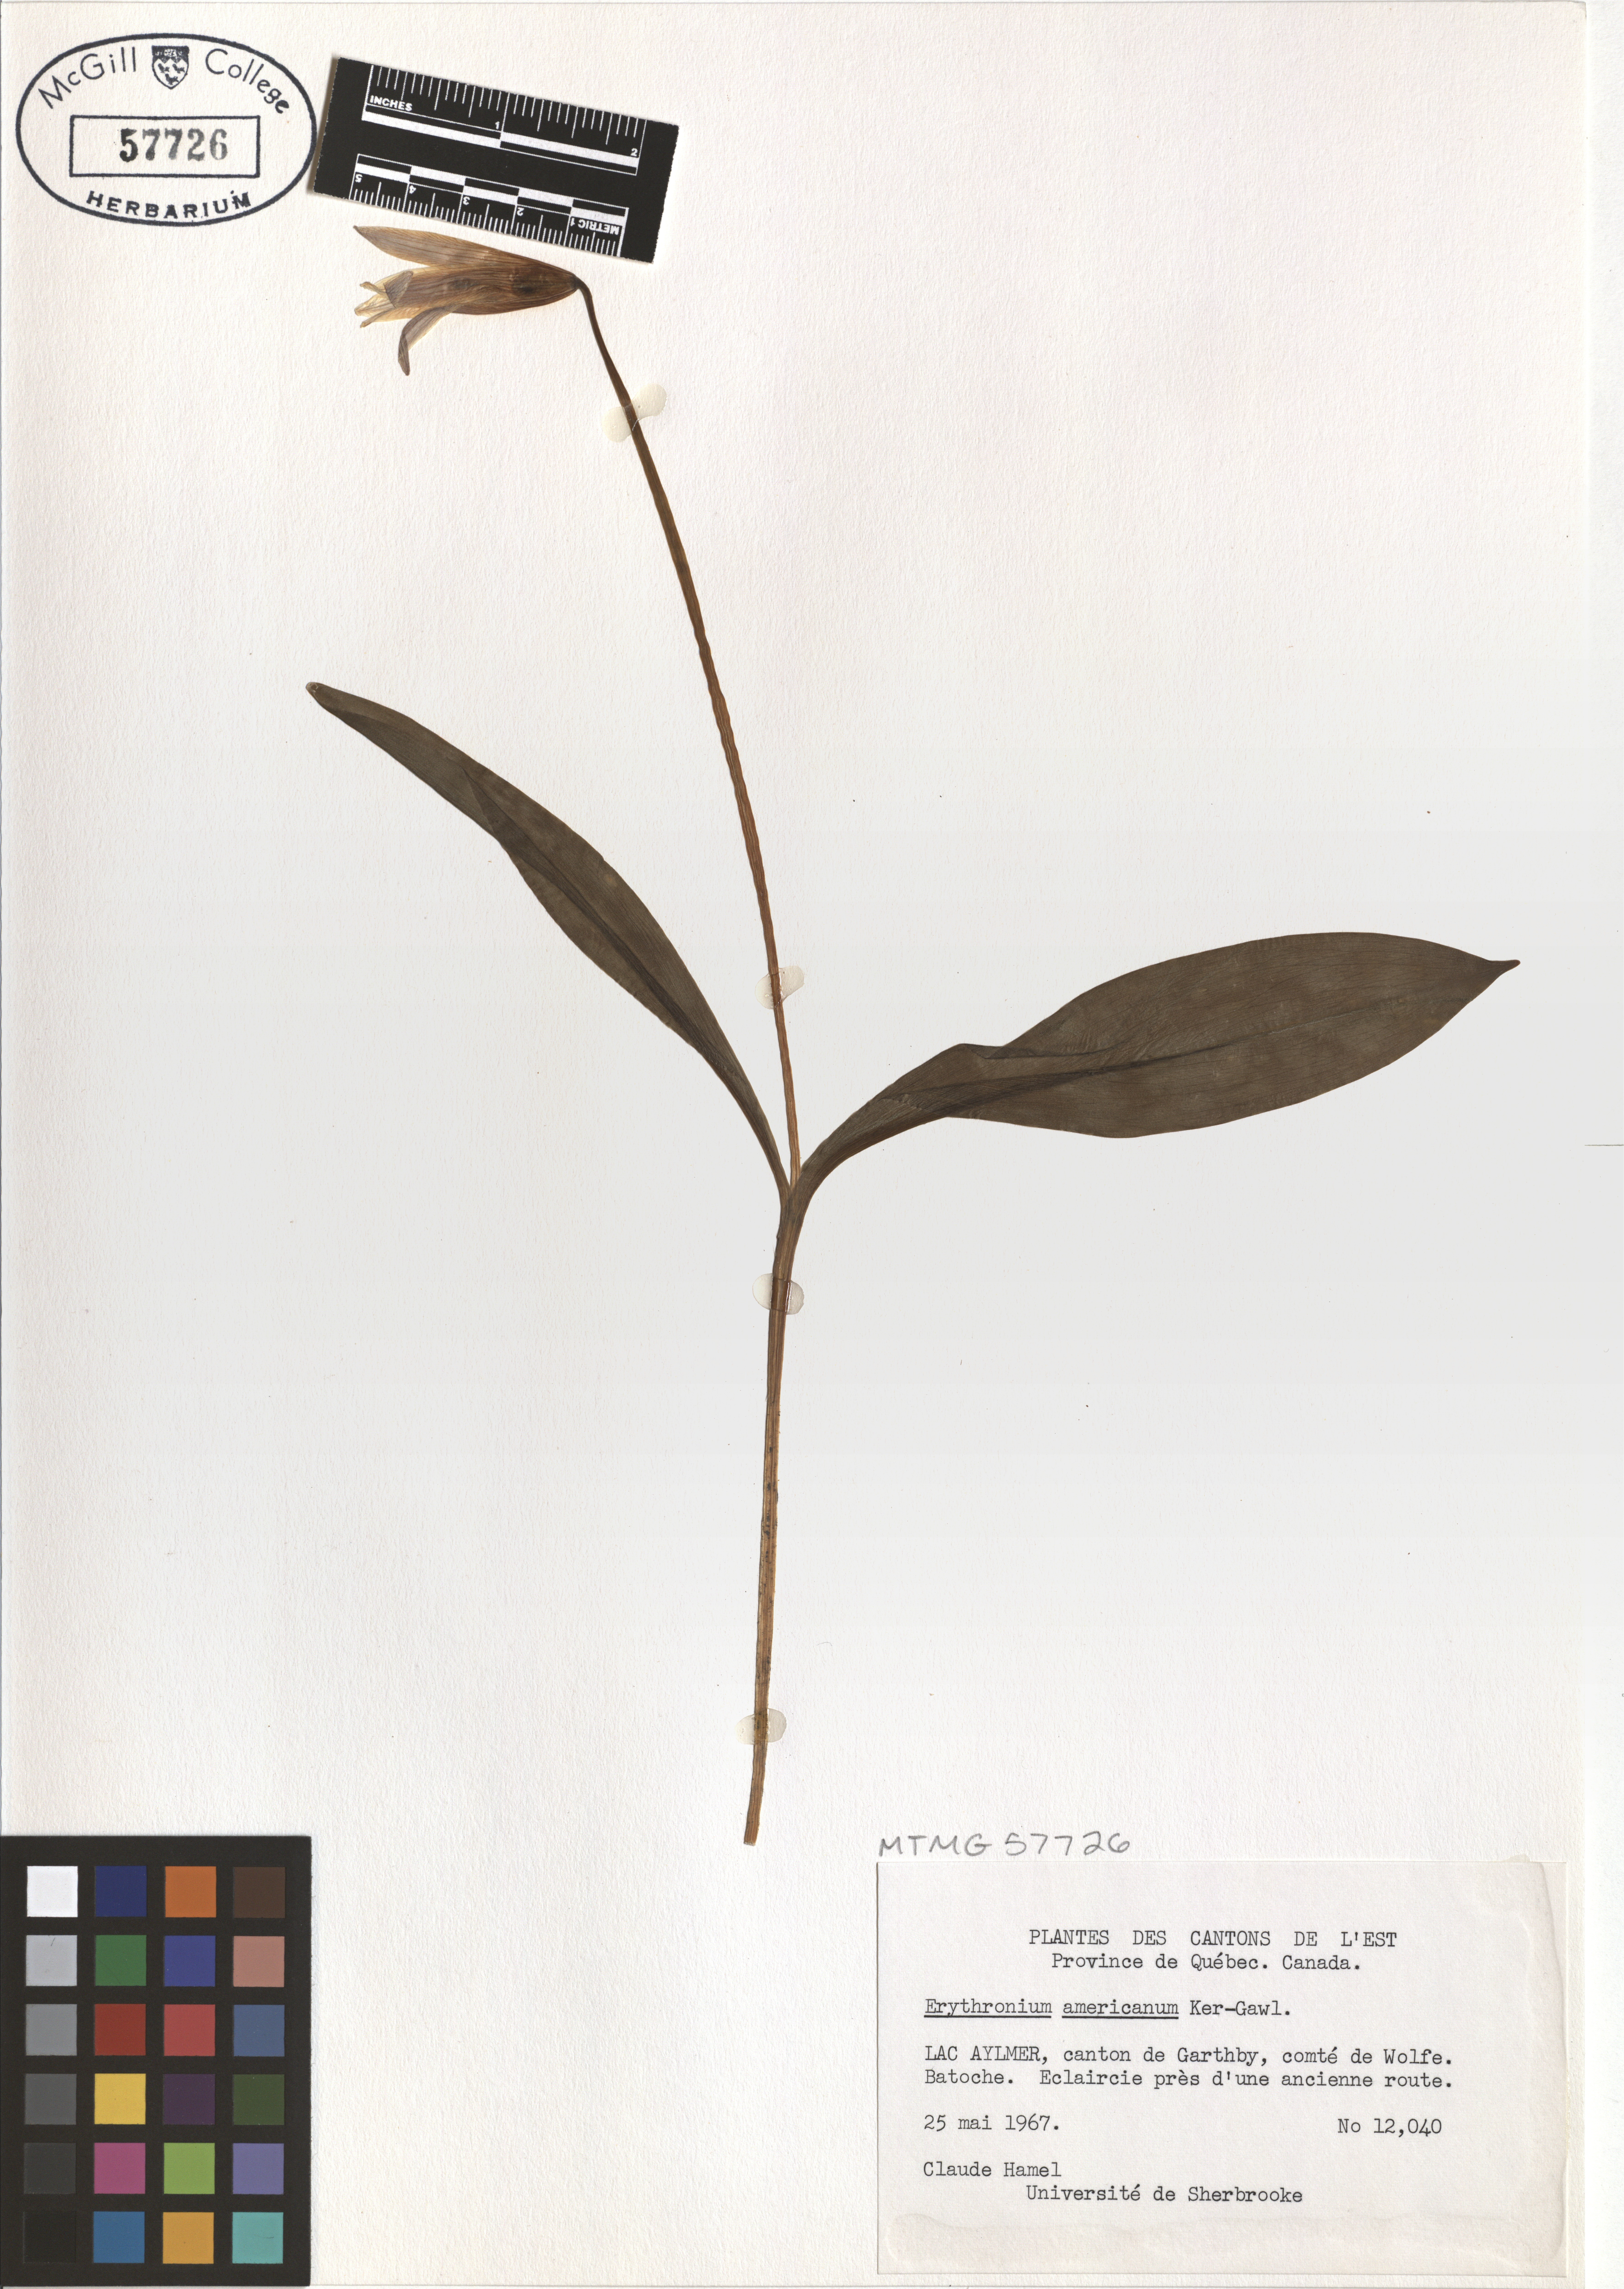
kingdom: Plantae
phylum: Tracheophyta
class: Liliopsida
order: Liliales
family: Liliaceae
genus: Erythronium
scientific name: Erythronium americanum
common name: Yellow adder's-tongue
